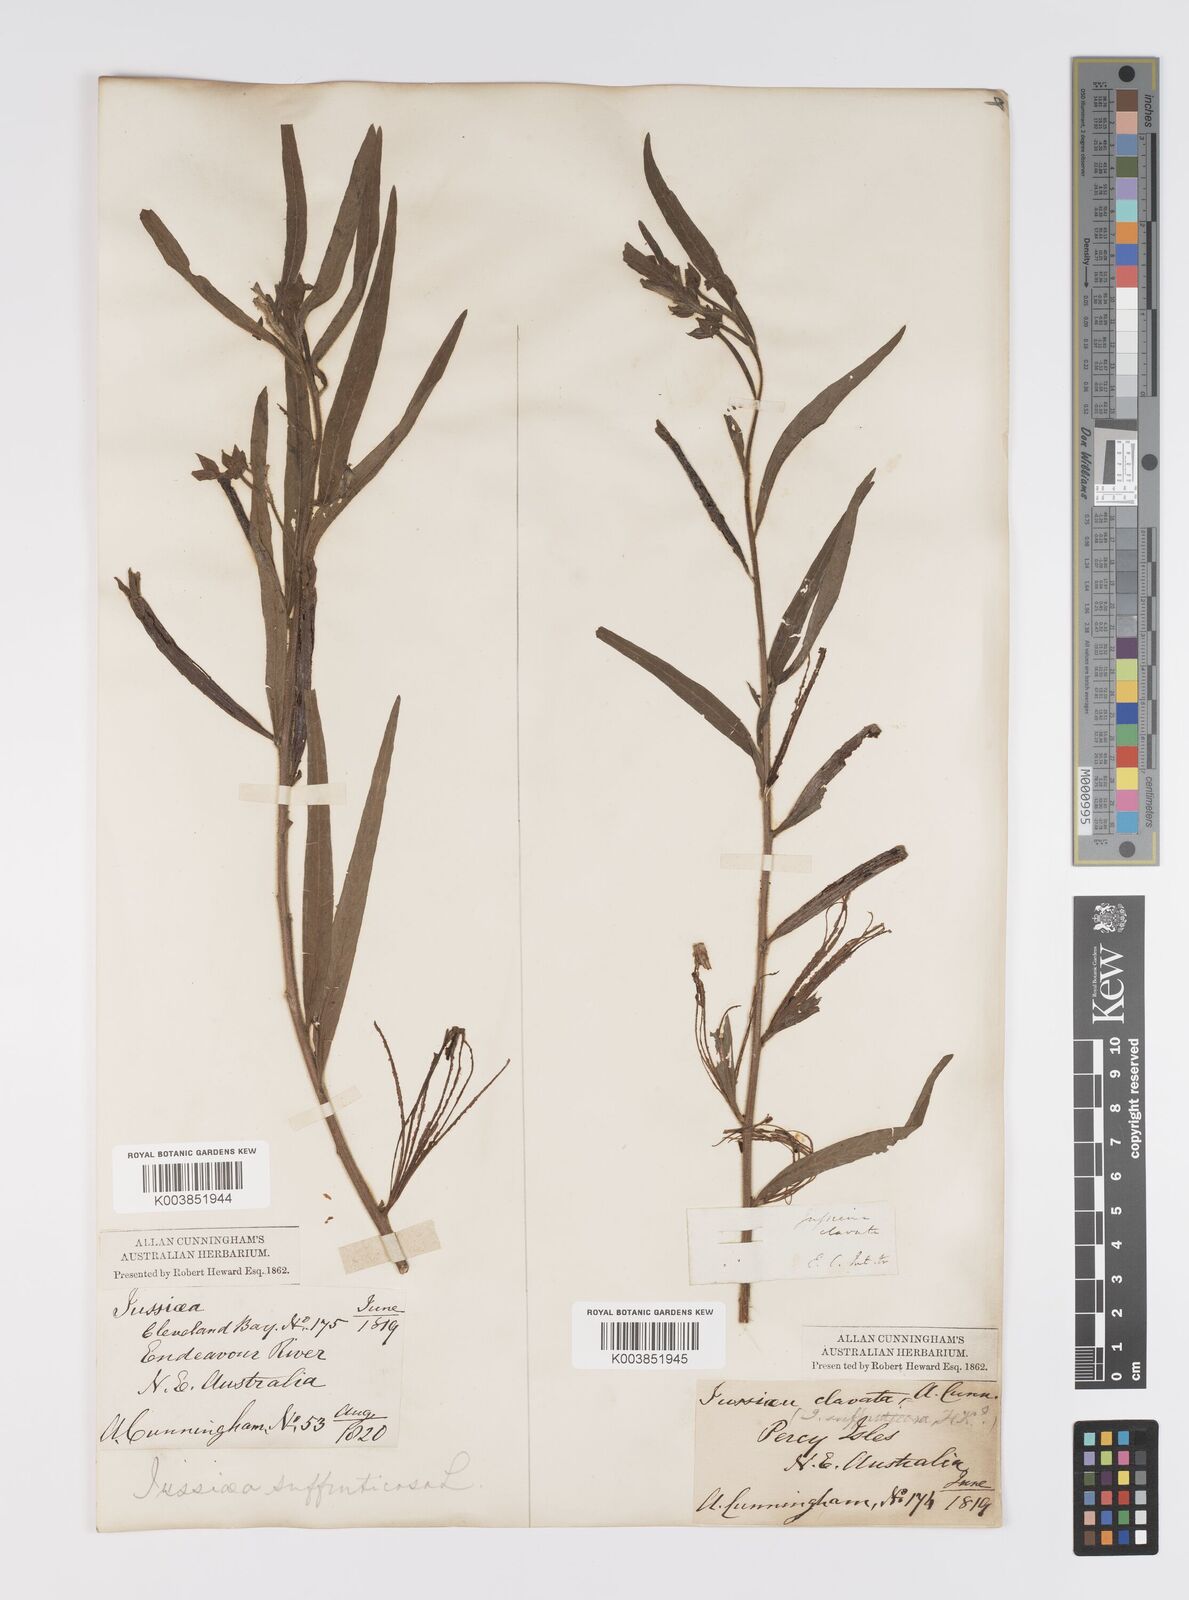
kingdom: Plantae
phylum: Tracheophyta
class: Magnoliopsida
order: Myrtales
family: Onagraceae
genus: Ludwigia
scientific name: Ludwigia octovalvis
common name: Water-primrose
